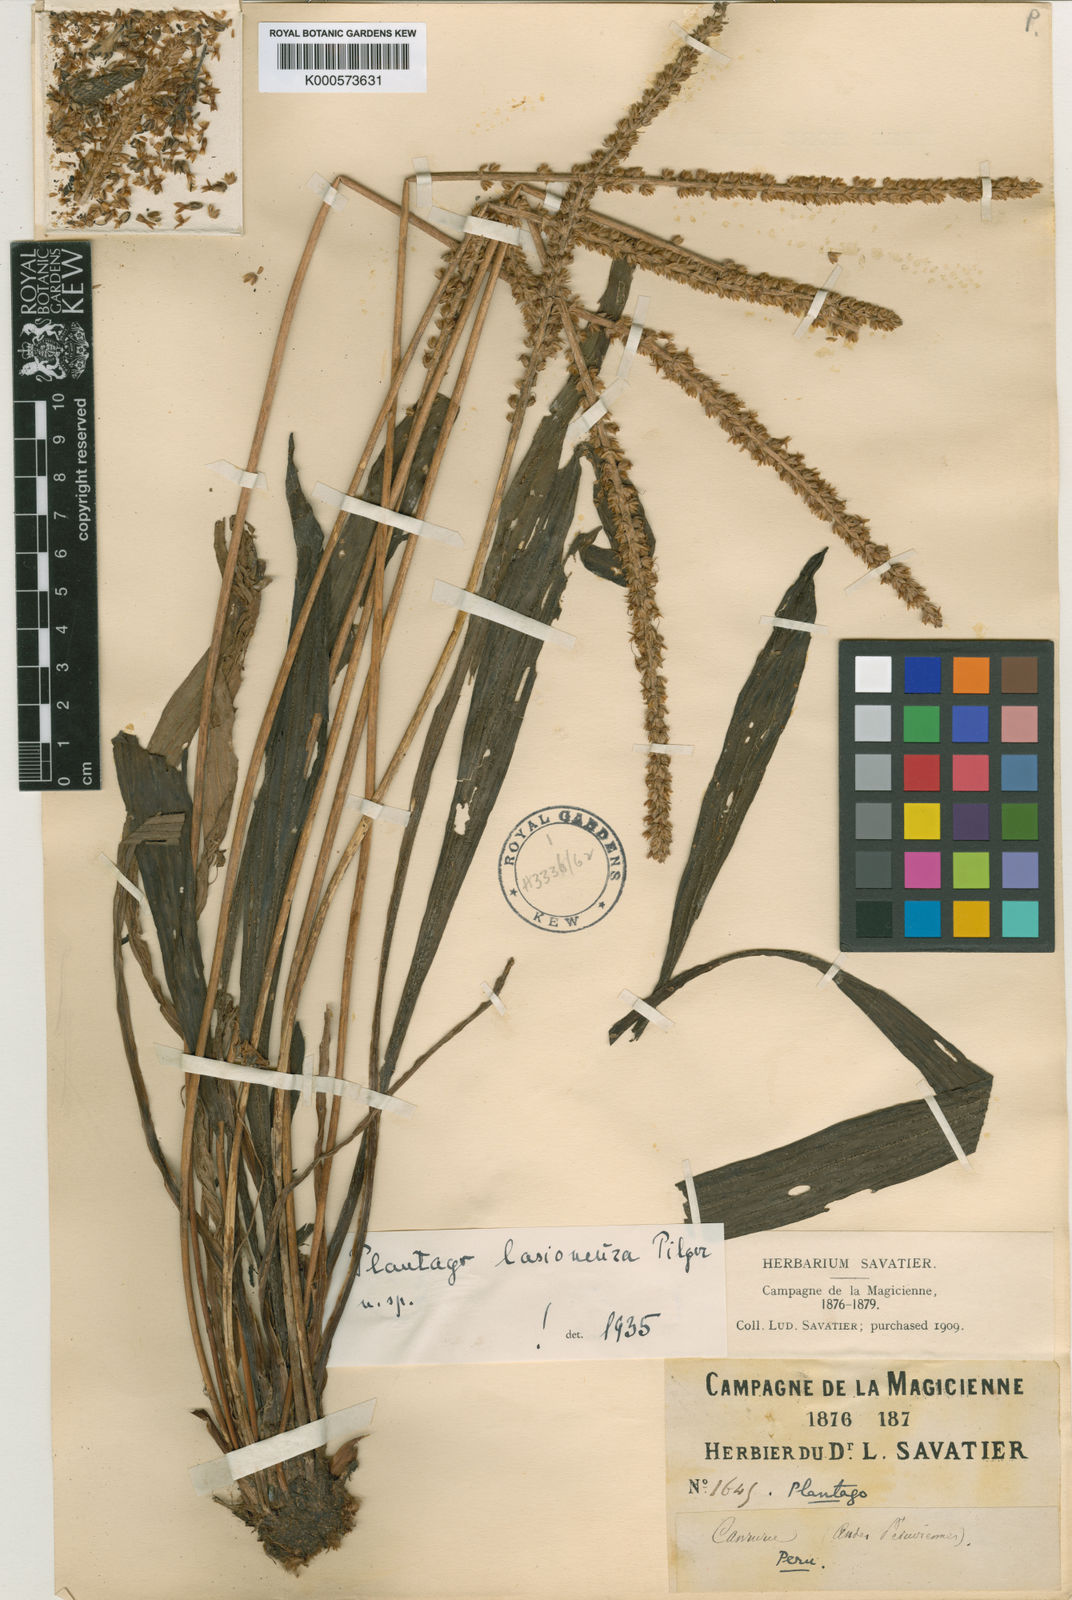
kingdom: Plantae
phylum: Tracheophyta
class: Magnoliopsida
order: Lamiales
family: Plantaginaceae
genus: Plantago
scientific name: Plantago australis
